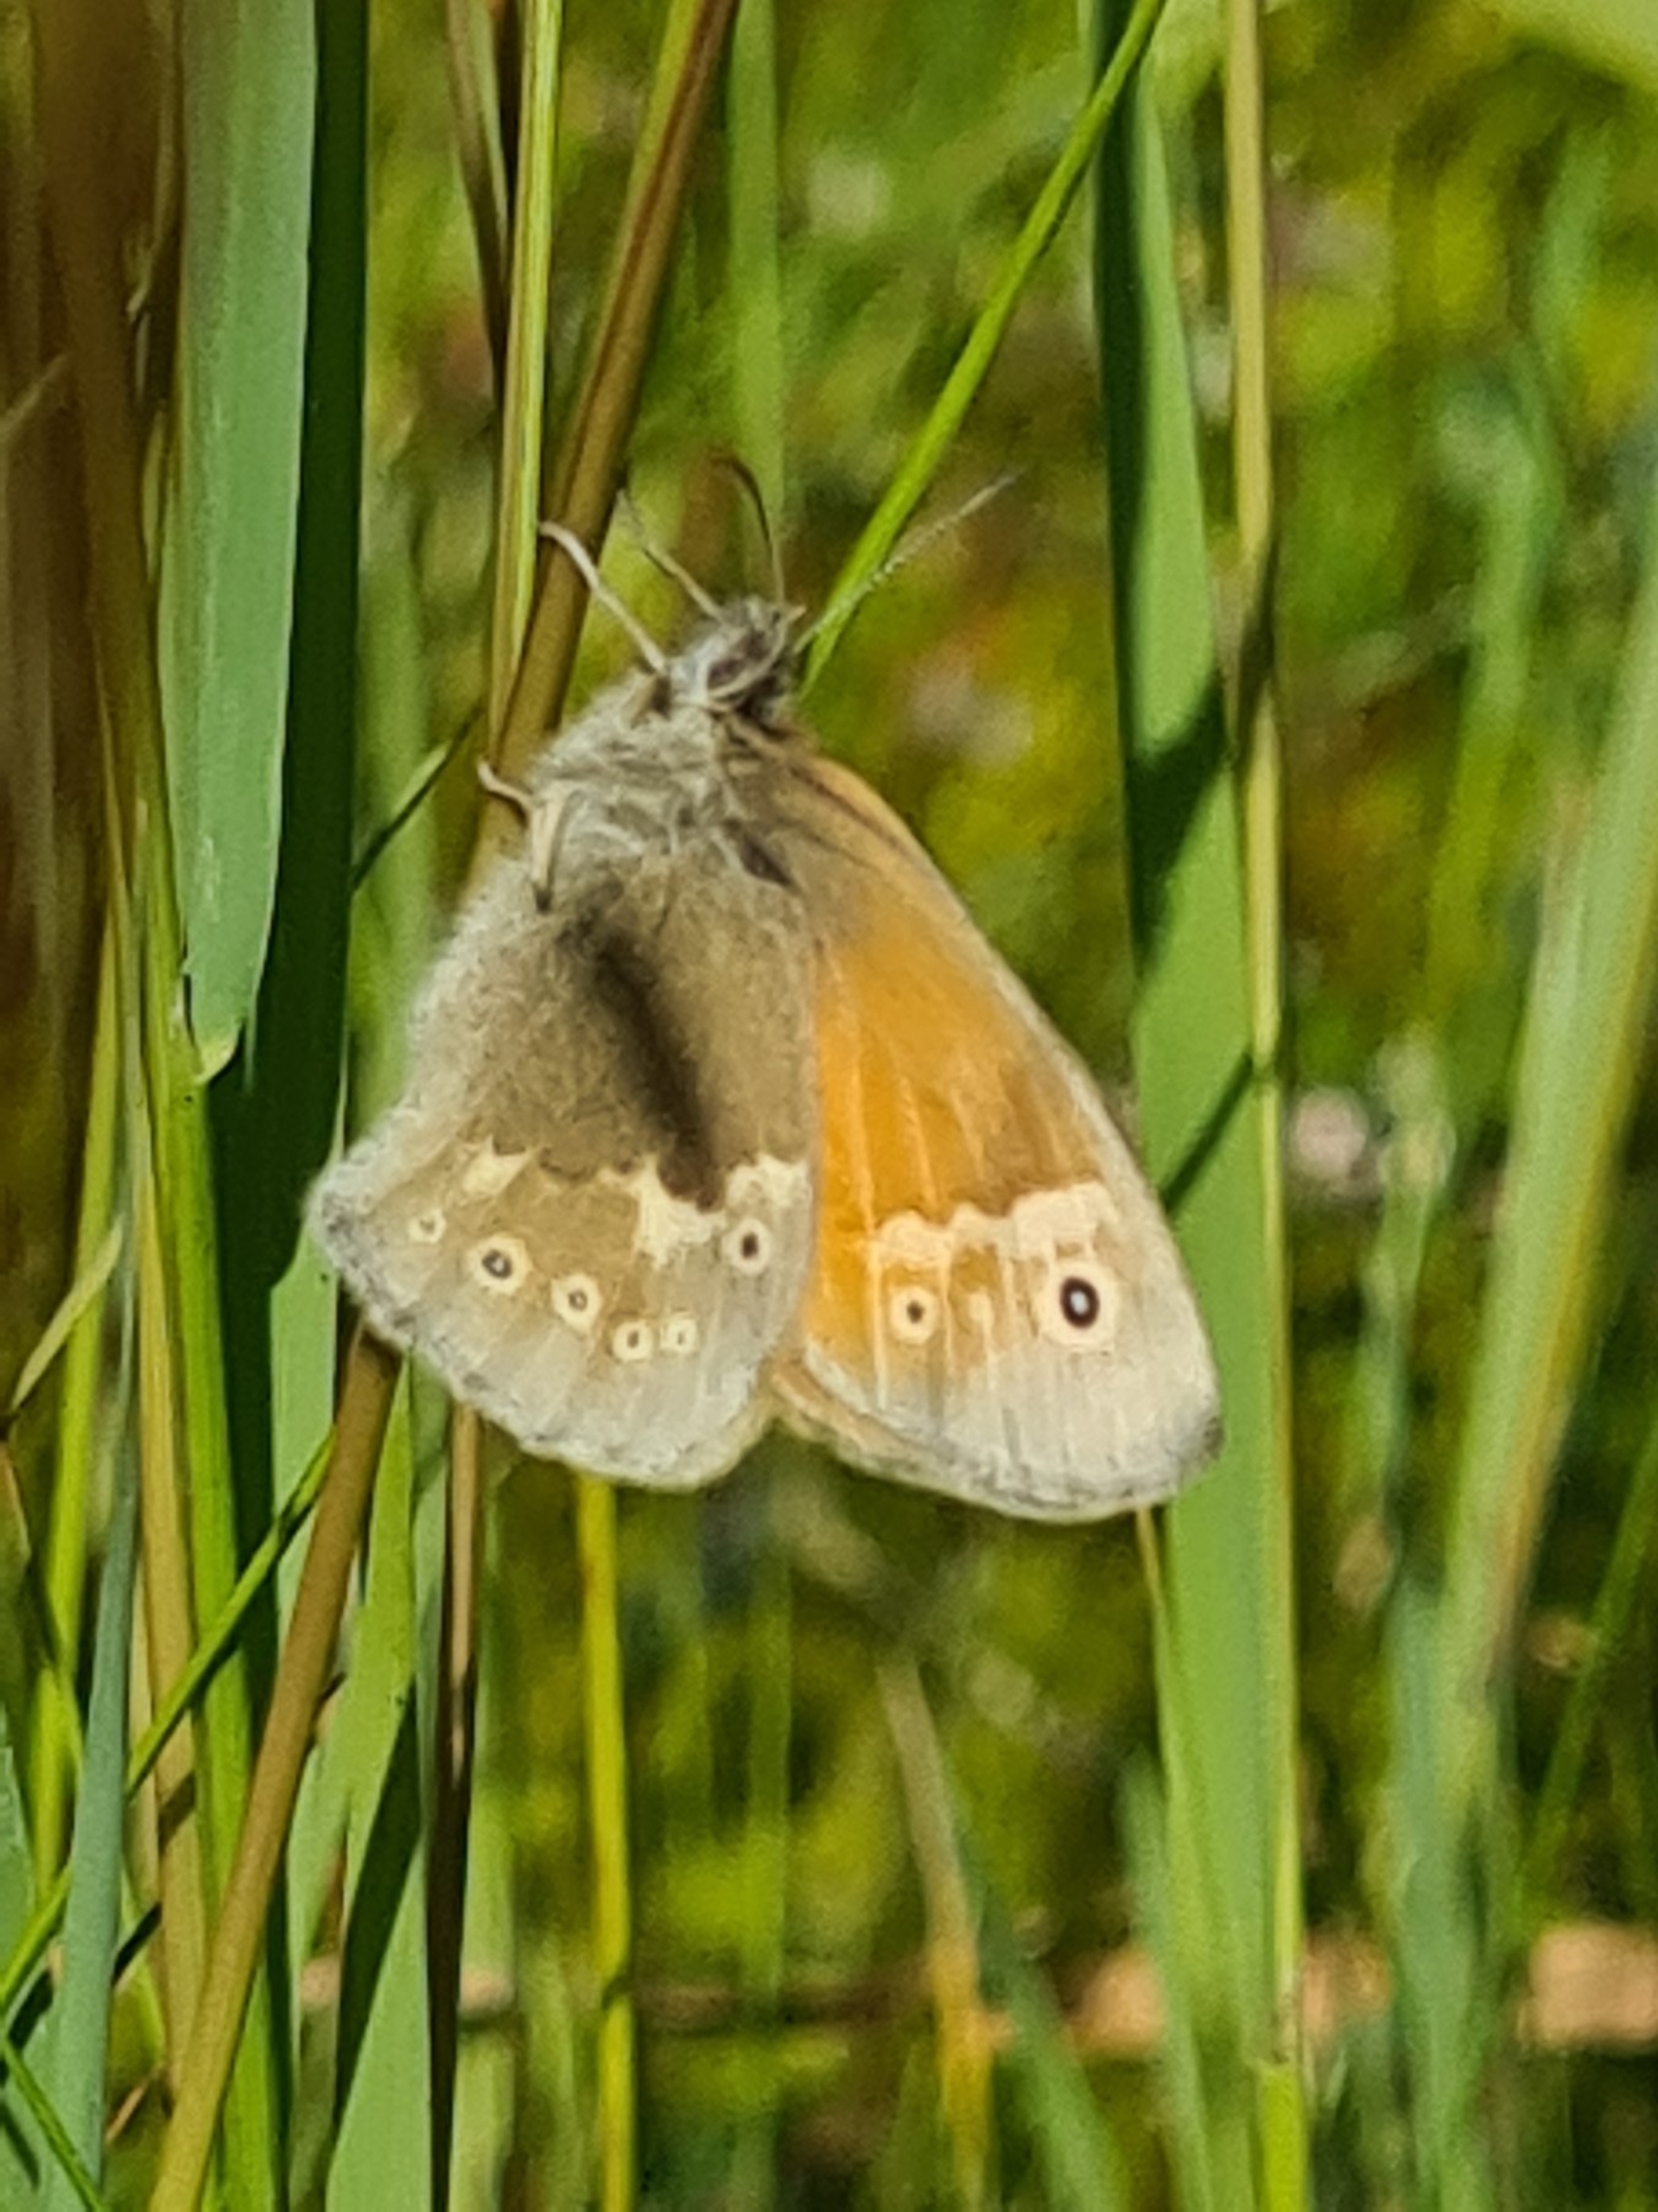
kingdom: Animalia
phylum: Arthropoda
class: Insecta
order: Lepidoptera
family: Nymphalidae
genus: Coenonympha
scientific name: Coenonympha tullia
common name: Moserandøje
